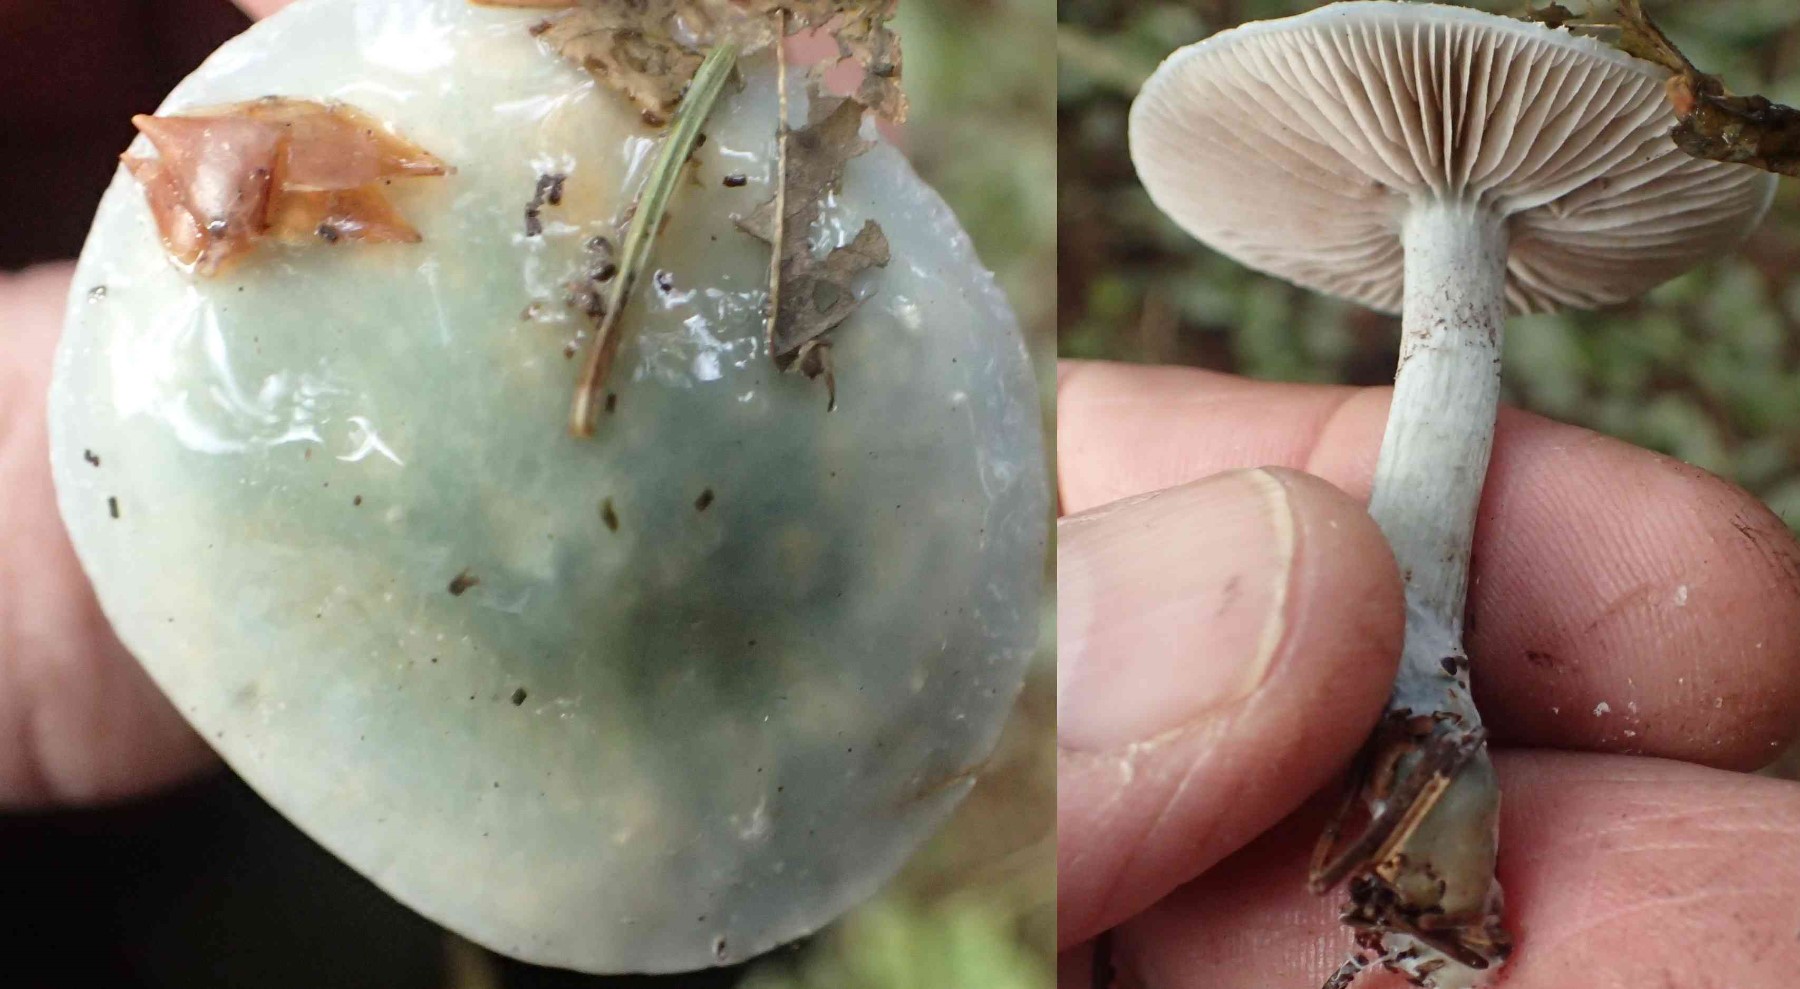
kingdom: Fungi
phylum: Basidiomycota
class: Agaricomycetes
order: Agaricales
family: Strophariaceae
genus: Stropharia
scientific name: Stropharia cyanea
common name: blågrøn bredblad
